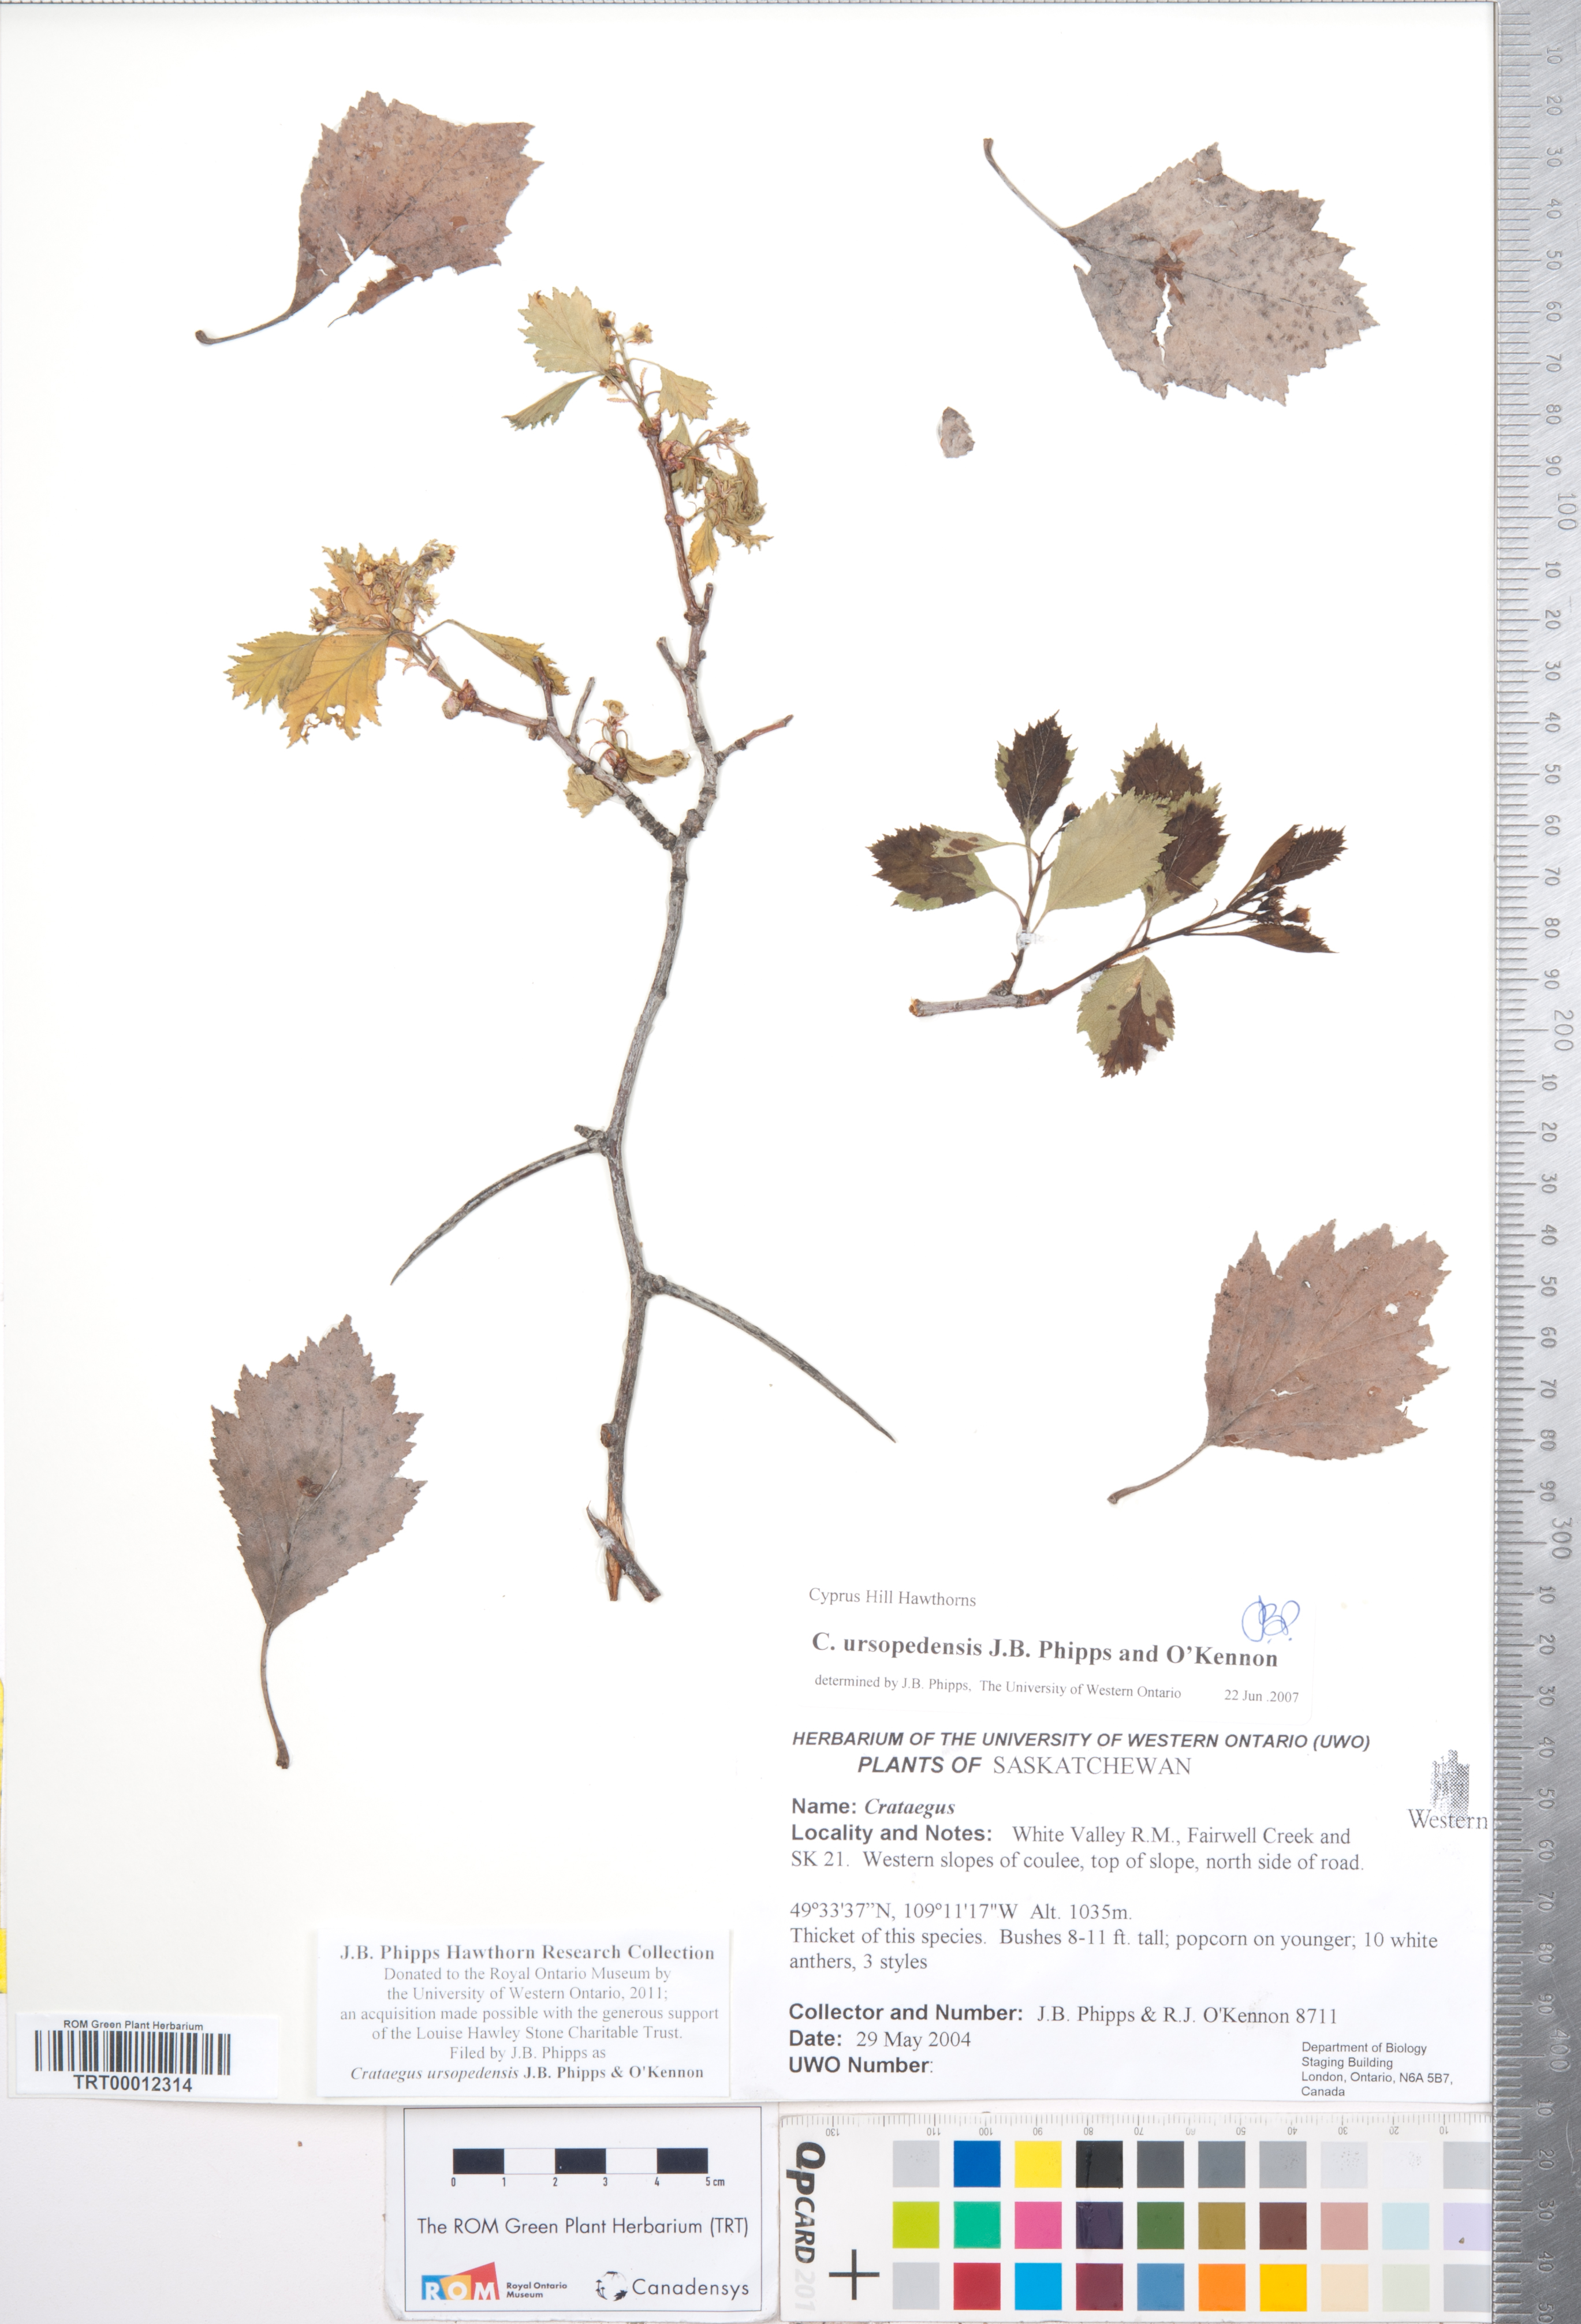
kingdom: Plantae
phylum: Tracheophyta
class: Magnoliopsida
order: Rosales
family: Rosaceae
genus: Crataegus
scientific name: Crataegus ursopedensis
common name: Bears paw hawthorn
